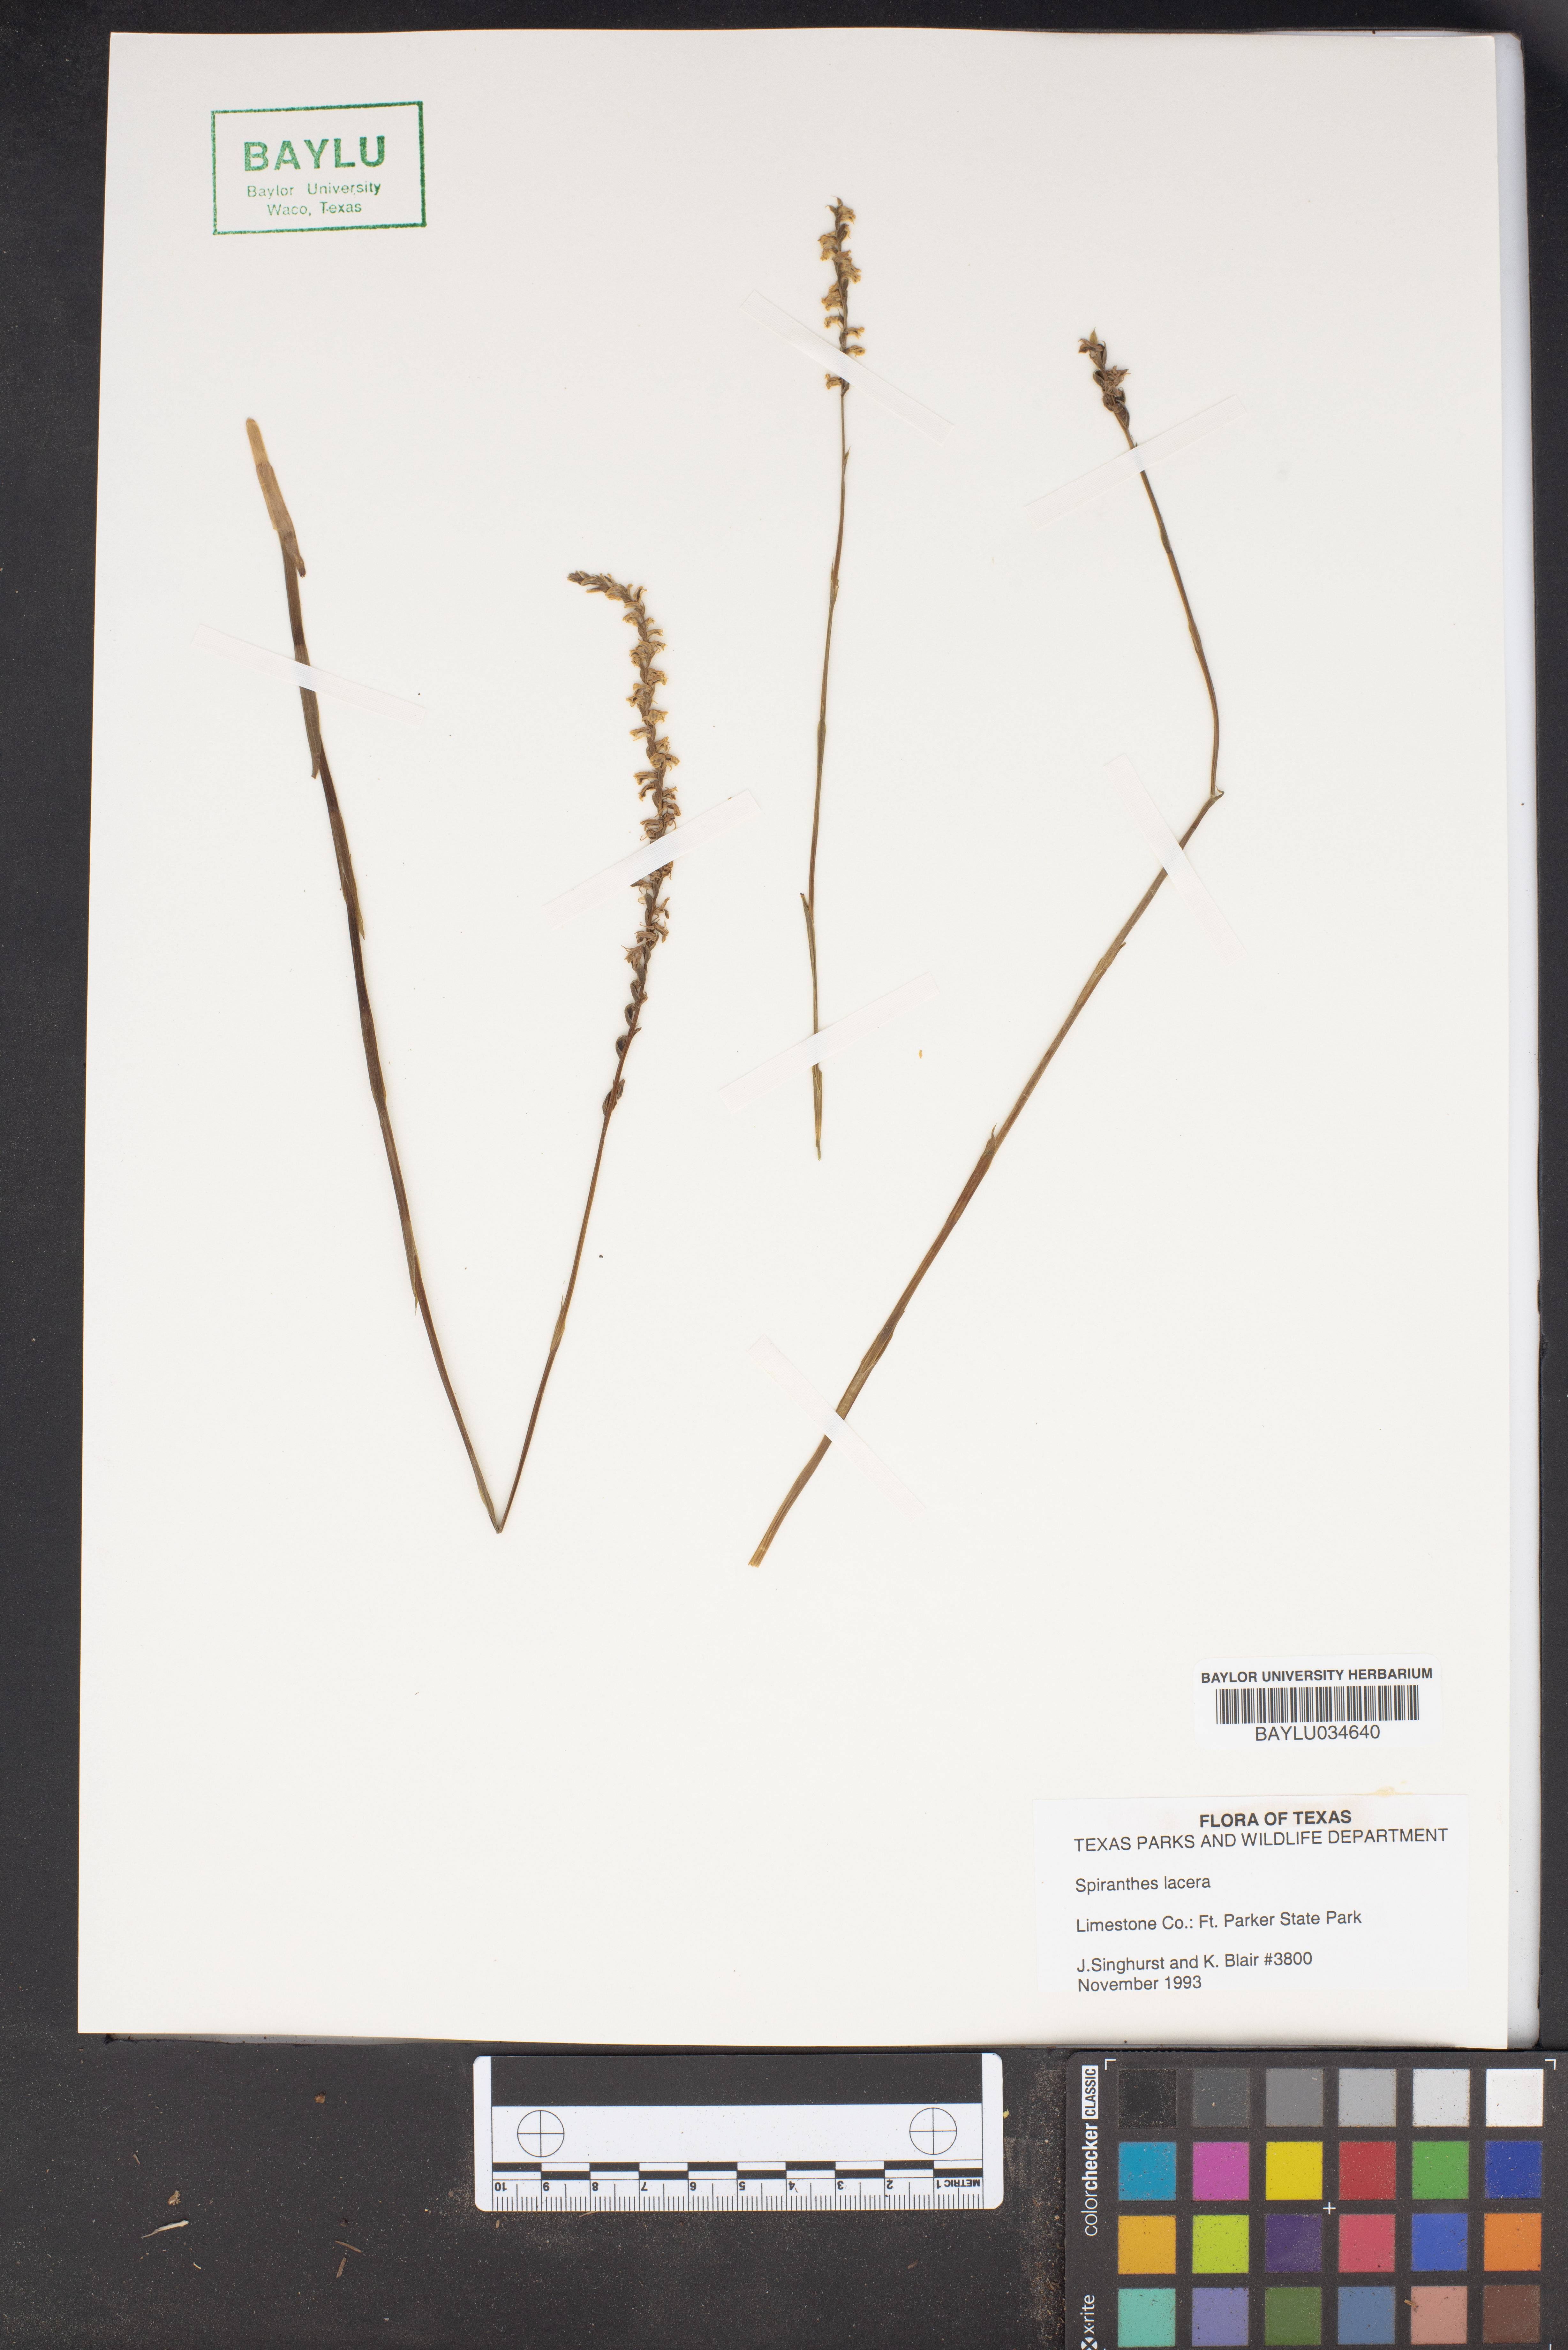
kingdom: Plantae
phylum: Tracheophyta
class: Liliopsida
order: Asparagales
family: Orchidaceae
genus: Spiranthes
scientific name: Spiranthes lacera
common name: Northern slender ladies'-tresses
